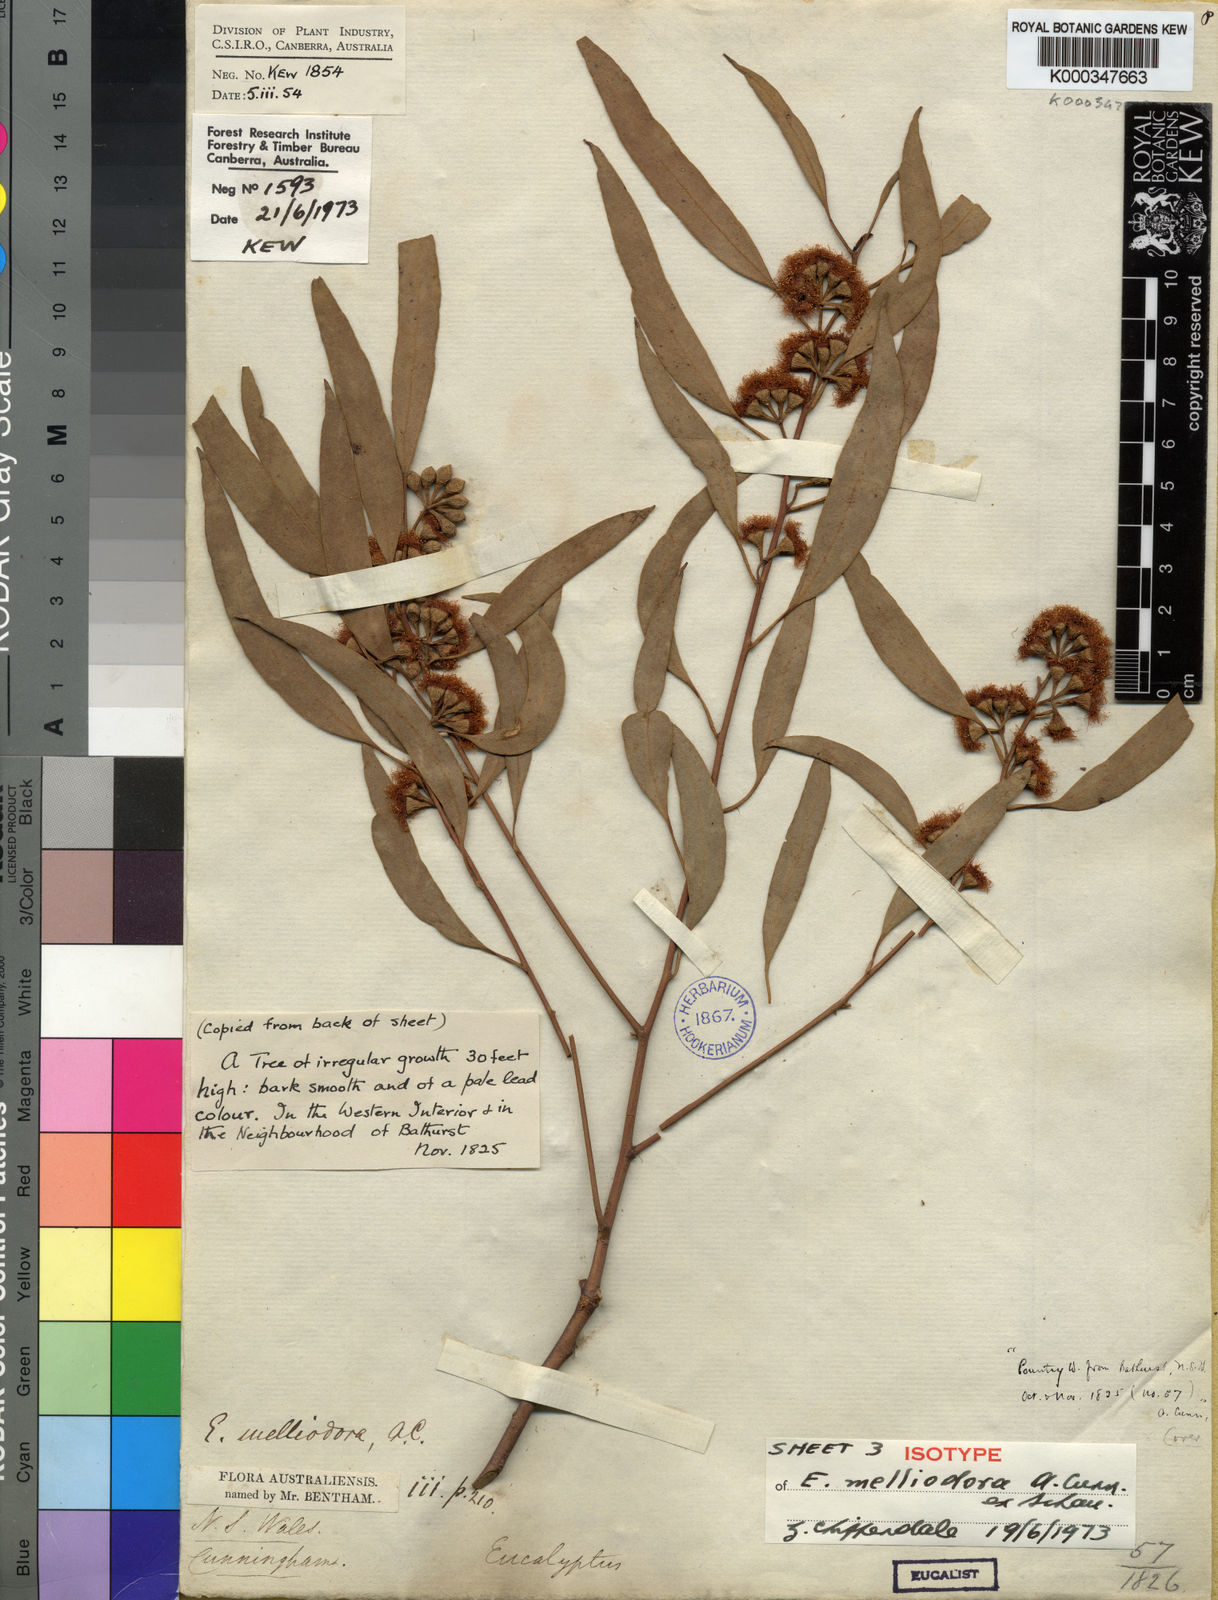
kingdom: Plantae
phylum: Tracheophyta
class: Magnoliopsida
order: Myrtales
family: Myrtaceae
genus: Eucalyptus
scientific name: Eucalyptus melliodora
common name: Yellow ironbox
